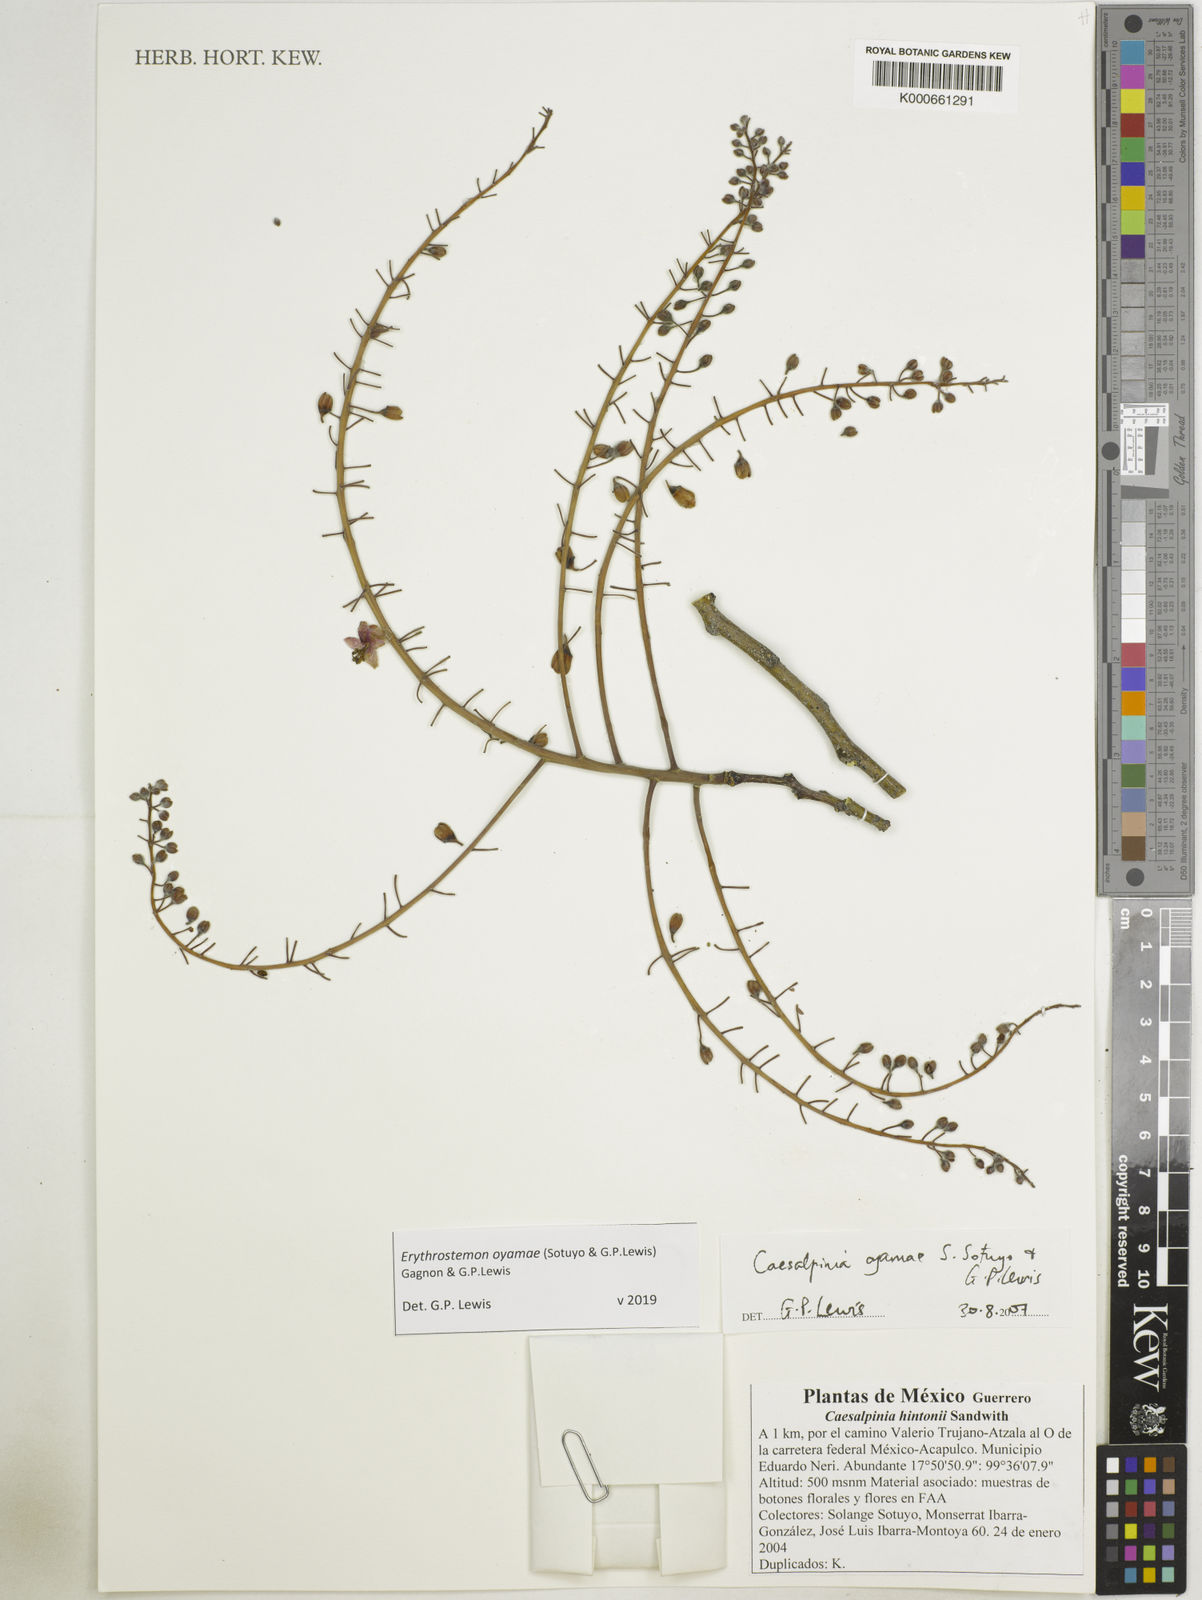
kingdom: Plantae
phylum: Tracheophyta
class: Magnoliopsida
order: Fabales
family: Fabaceae
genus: Erythrostemon
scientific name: Erythrostemon oyamae
